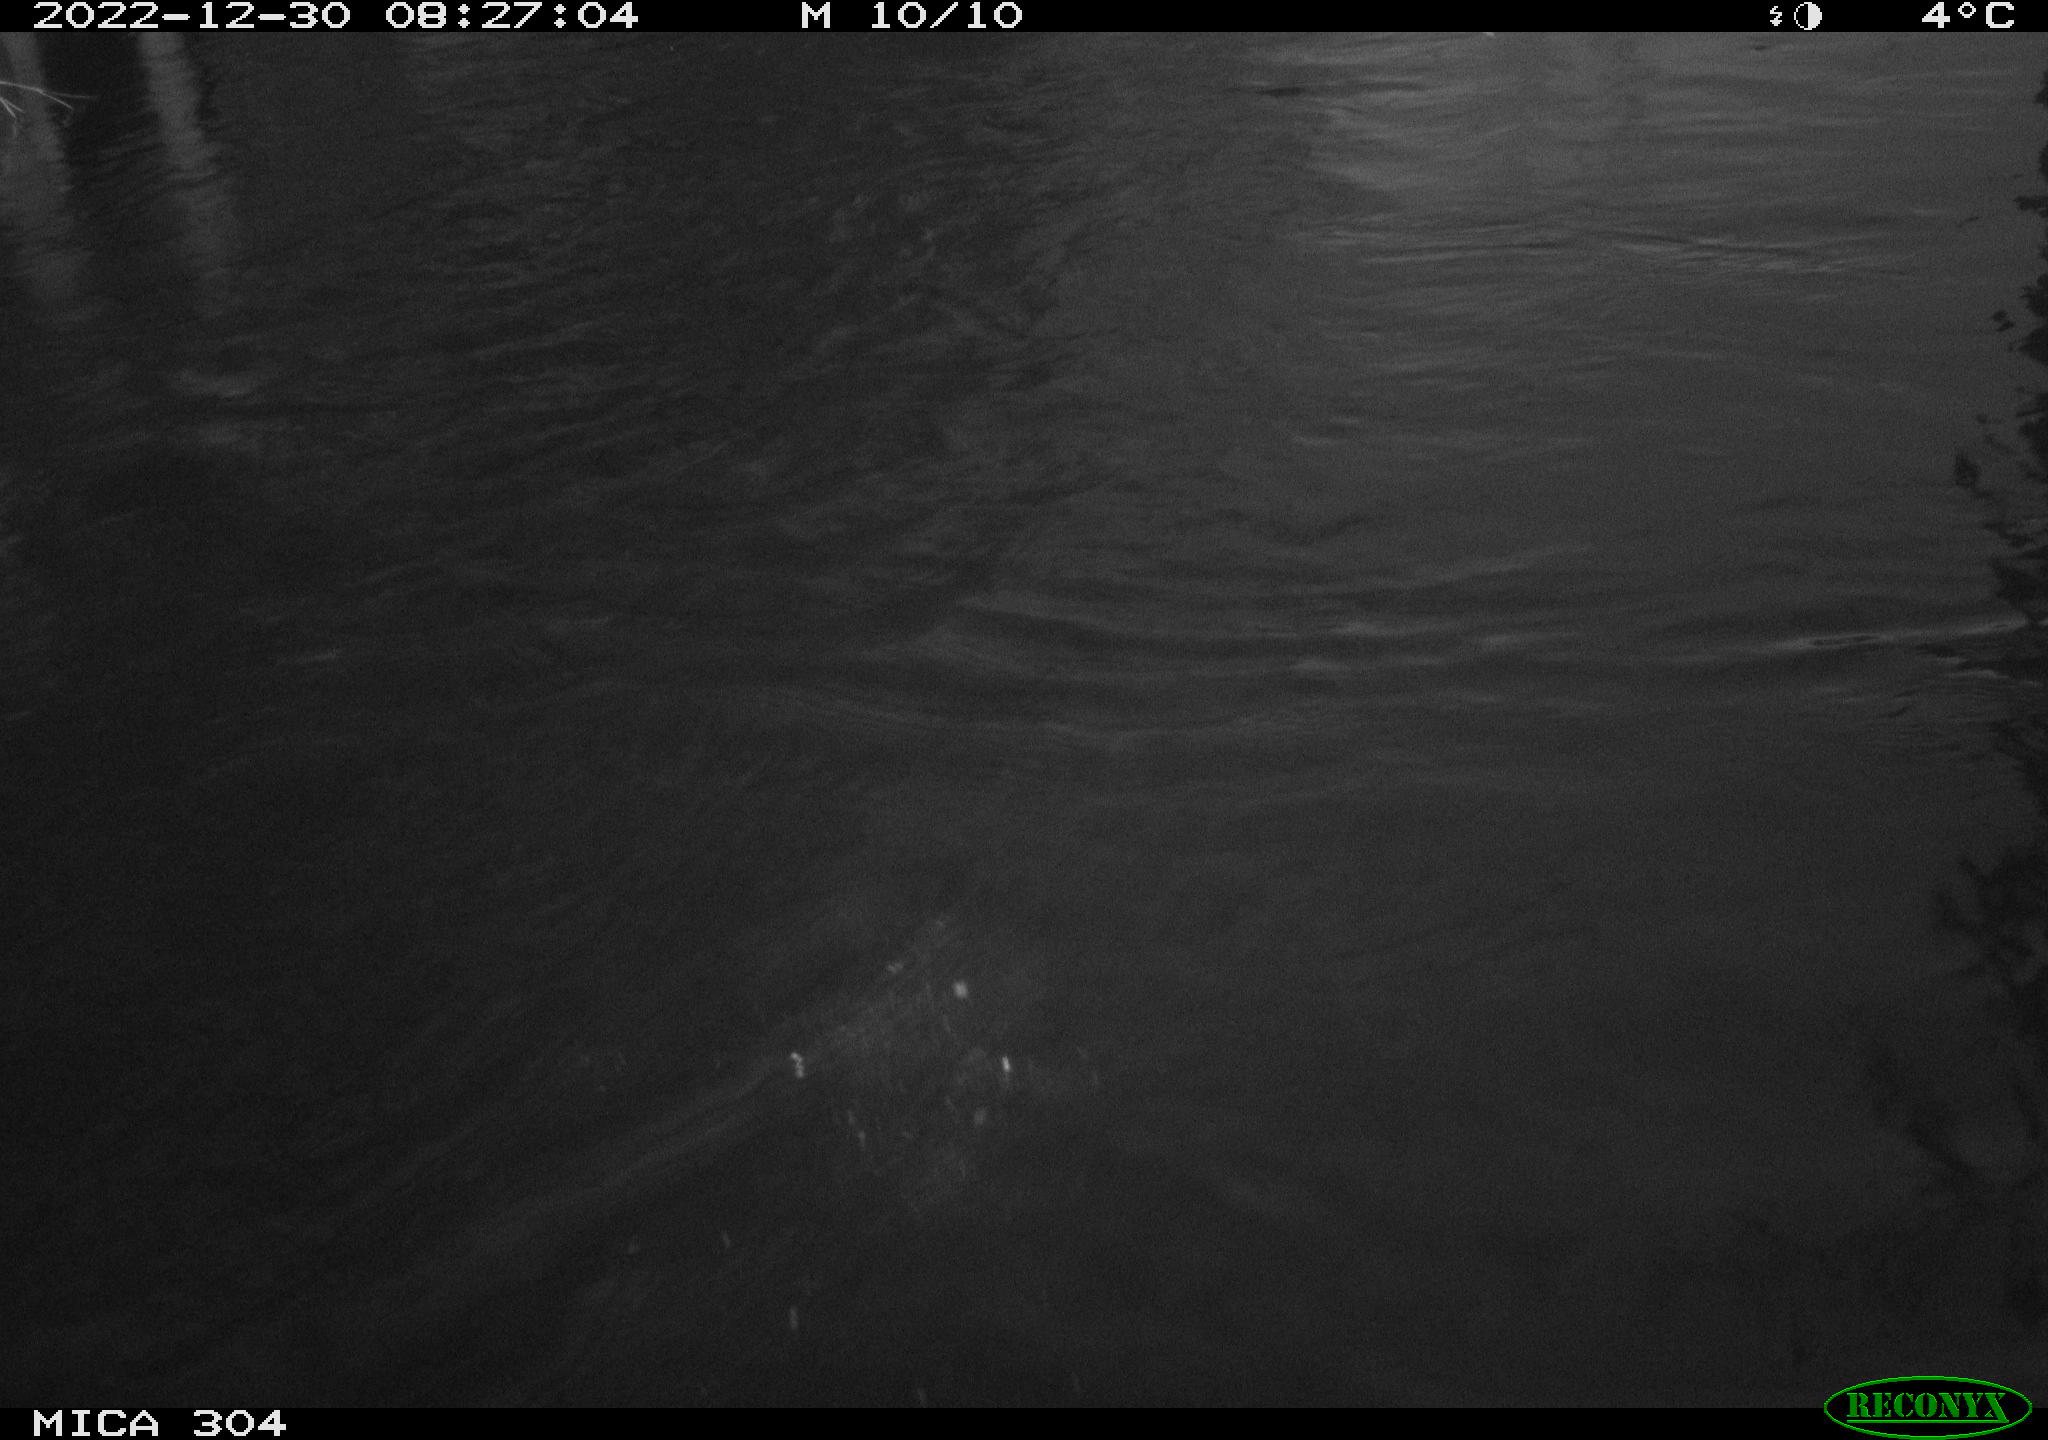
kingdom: Animalia
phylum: Chordata
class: Aves
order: Anseriformes
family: Anatidae
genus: Anas
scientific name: Anas
